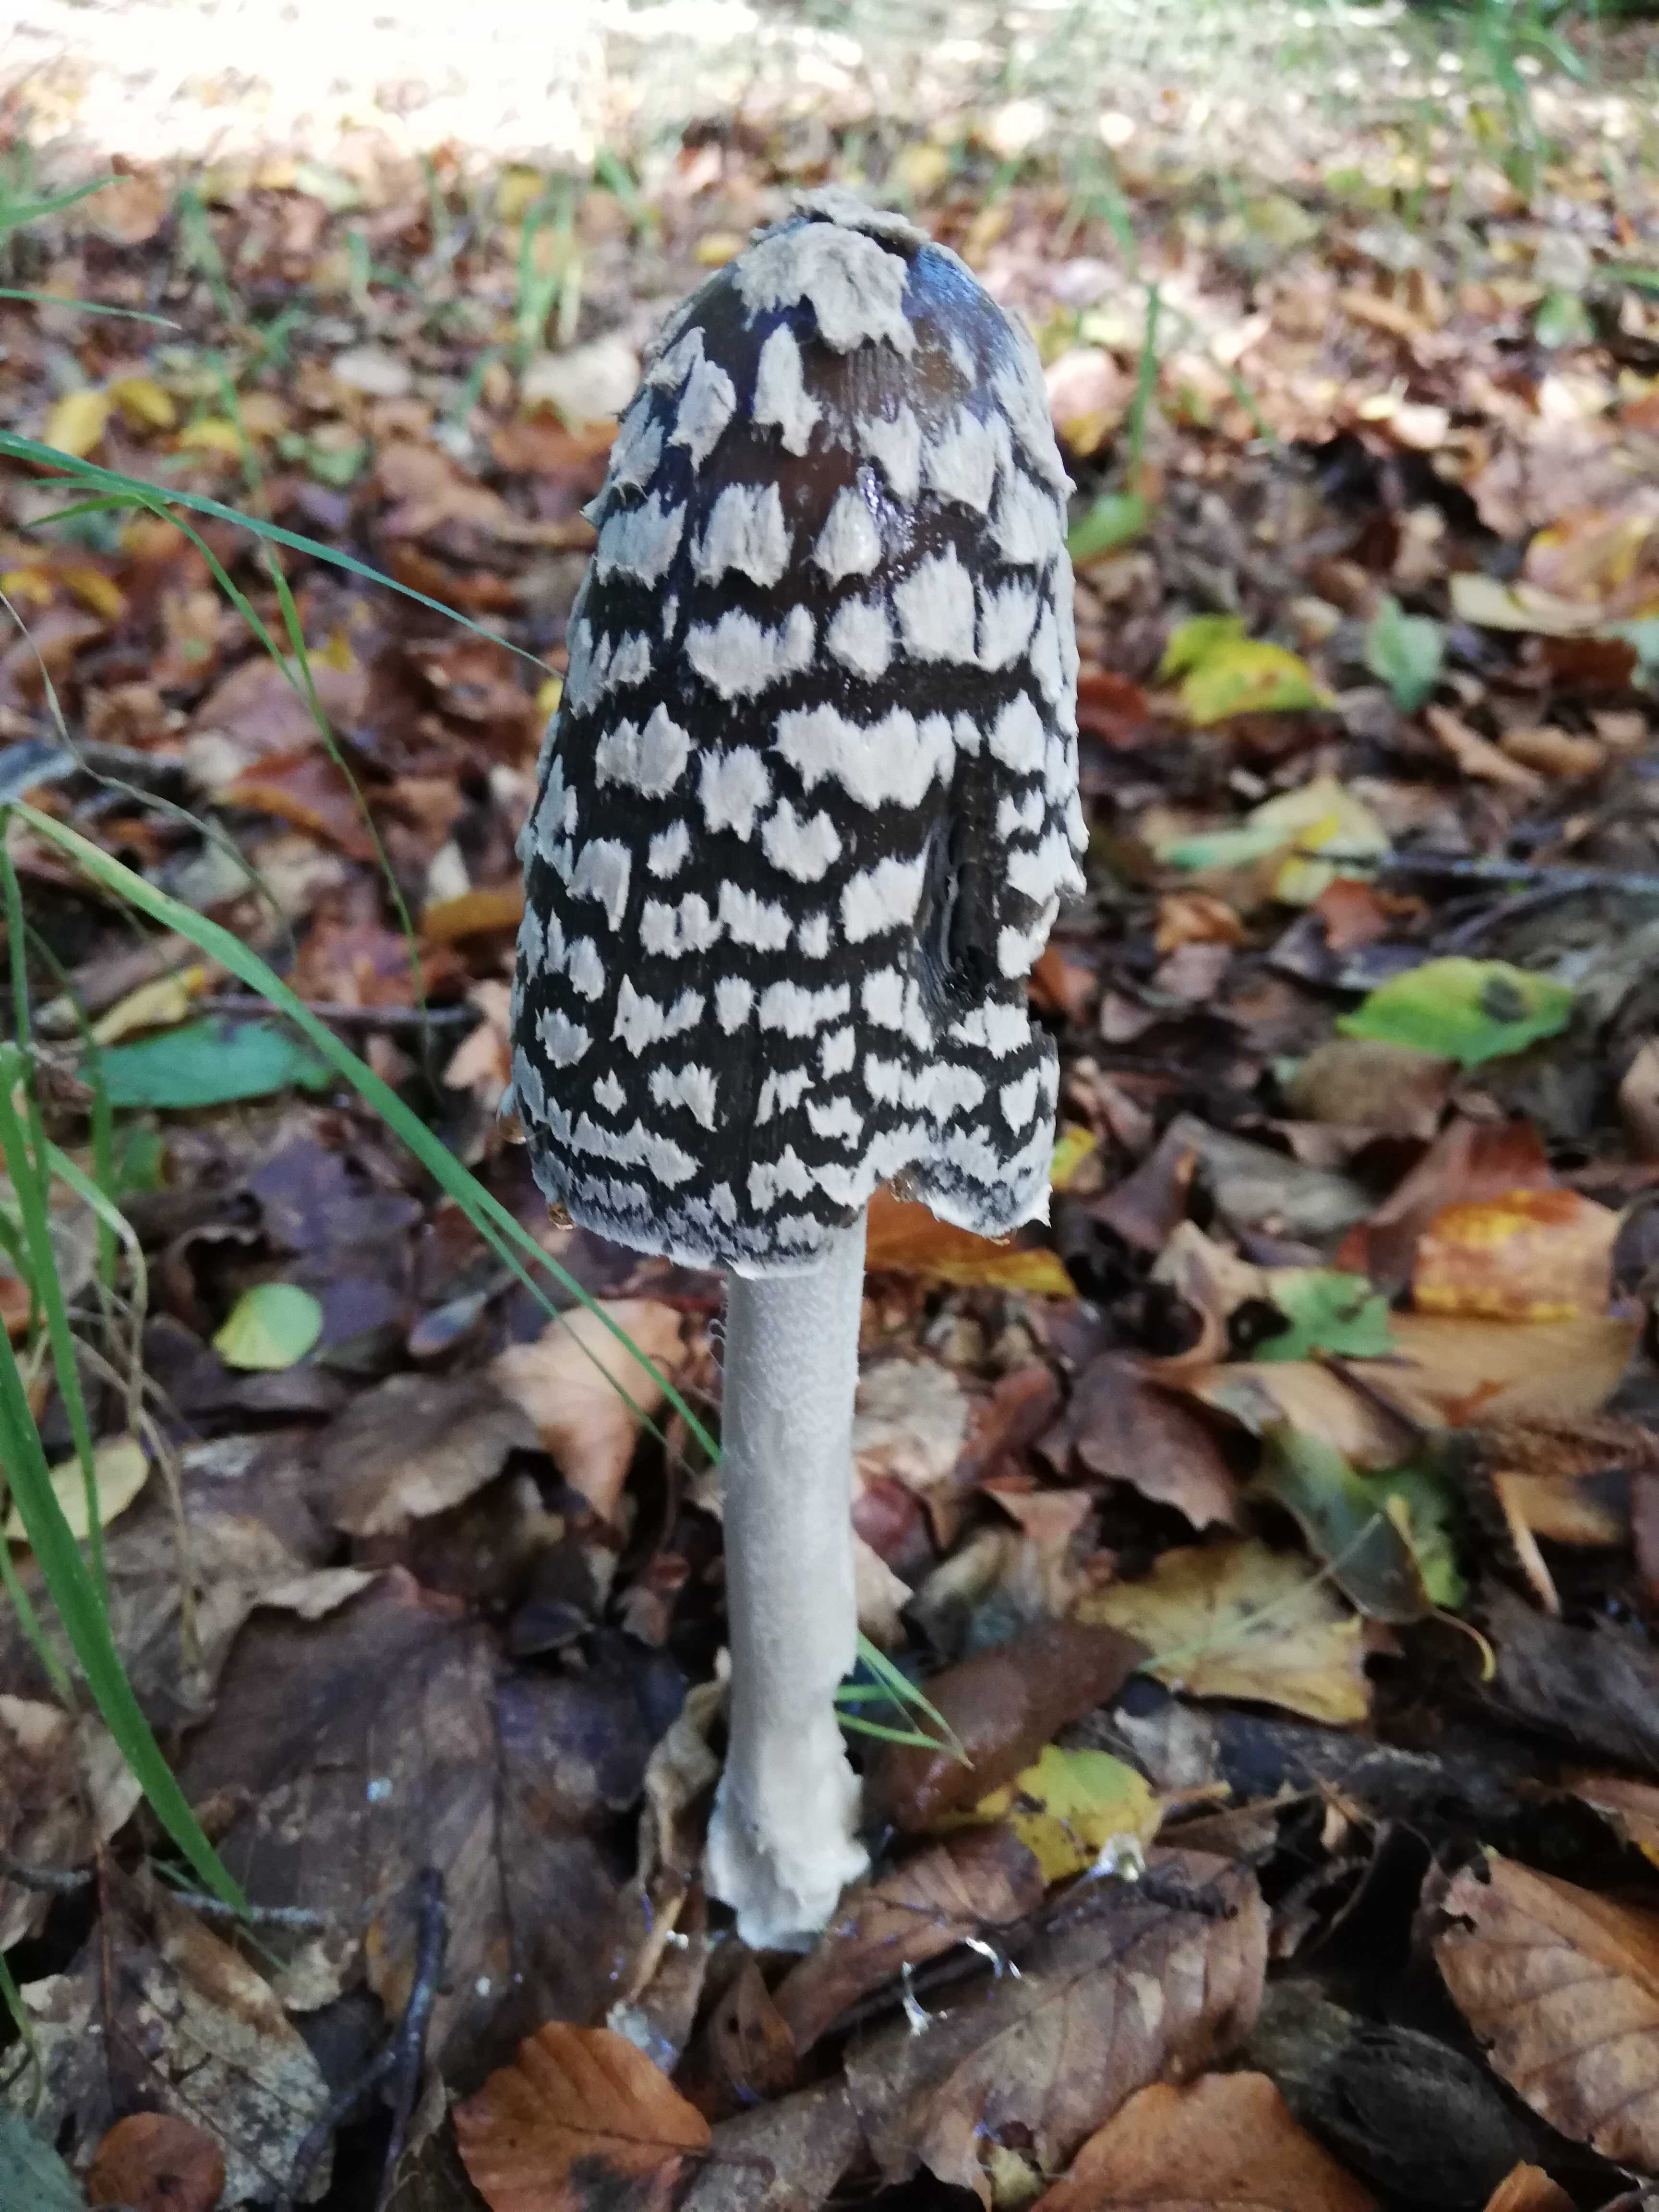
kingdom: Fungi
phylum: Basidiomycota
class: Agaricomycetes
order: Agaricales
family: Psathyrellaceae
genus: Coprinopsis
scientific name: Coprinopsis picacea
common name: skade-blækhat
